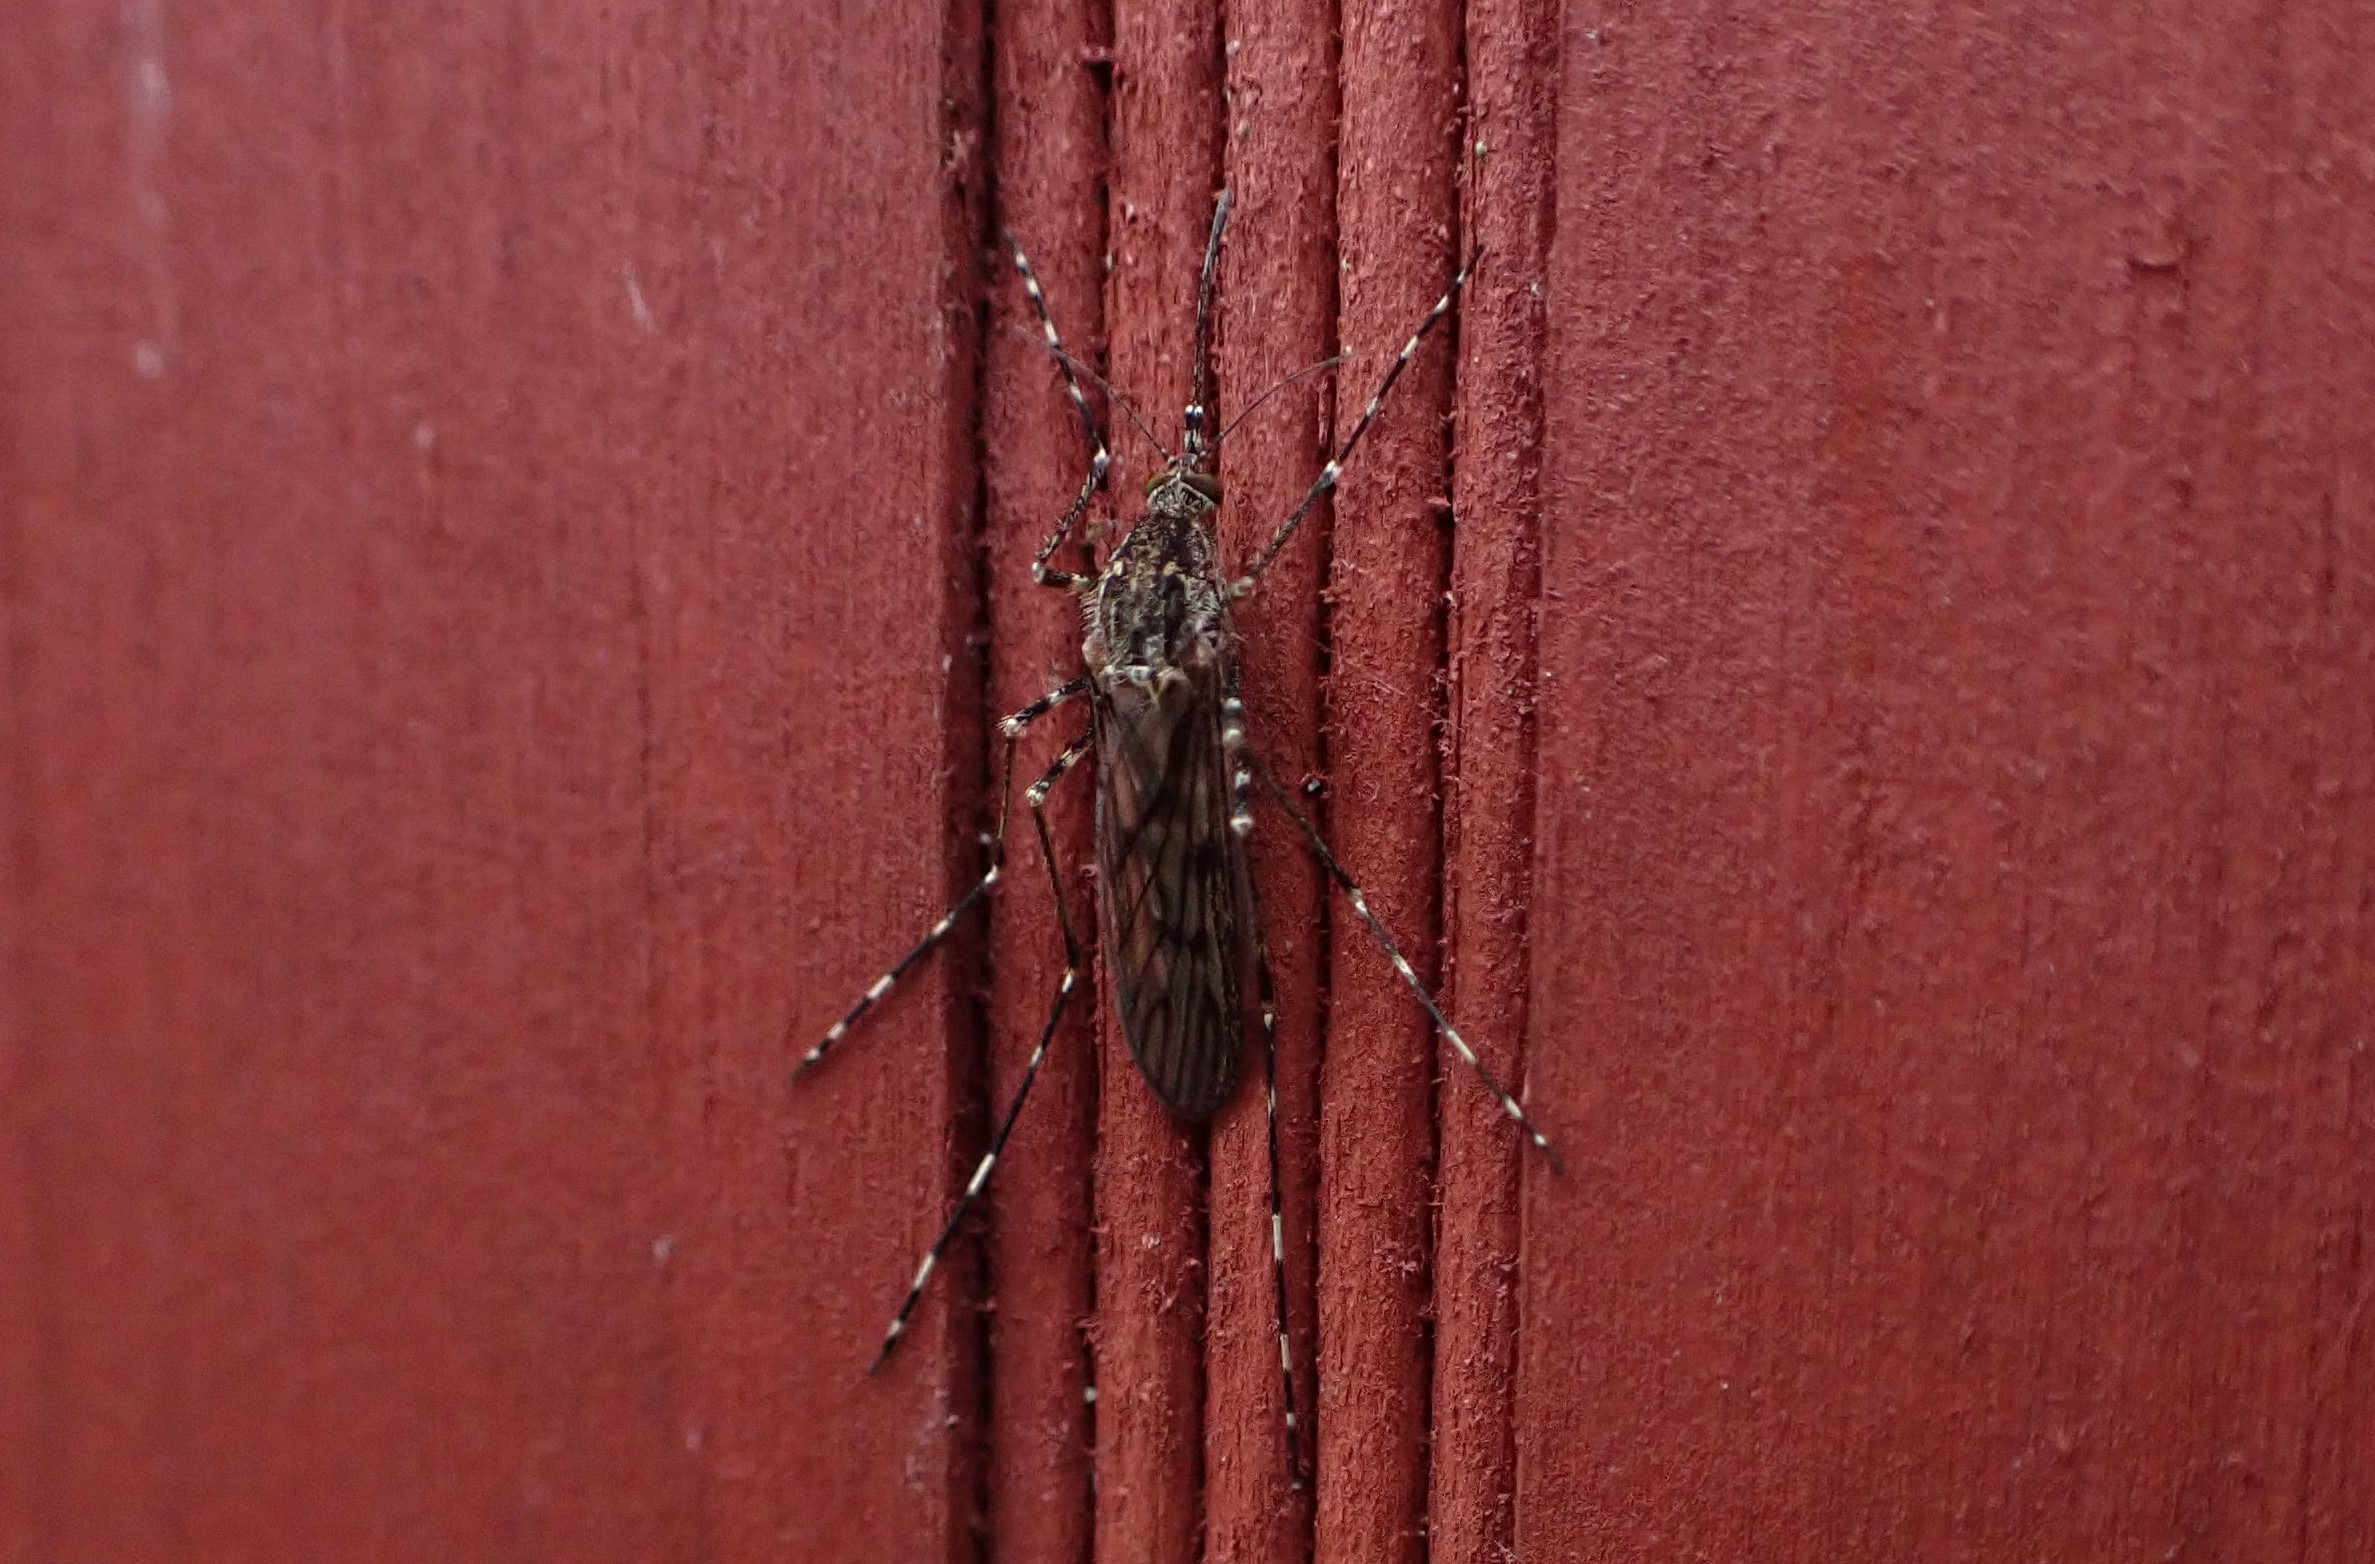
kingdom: Animalia
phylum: Arthropoda
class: Insecta
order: Diptera
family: Culicidae
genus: Culiseta
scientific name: Culiseta annulata
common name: Stor kældermyg
